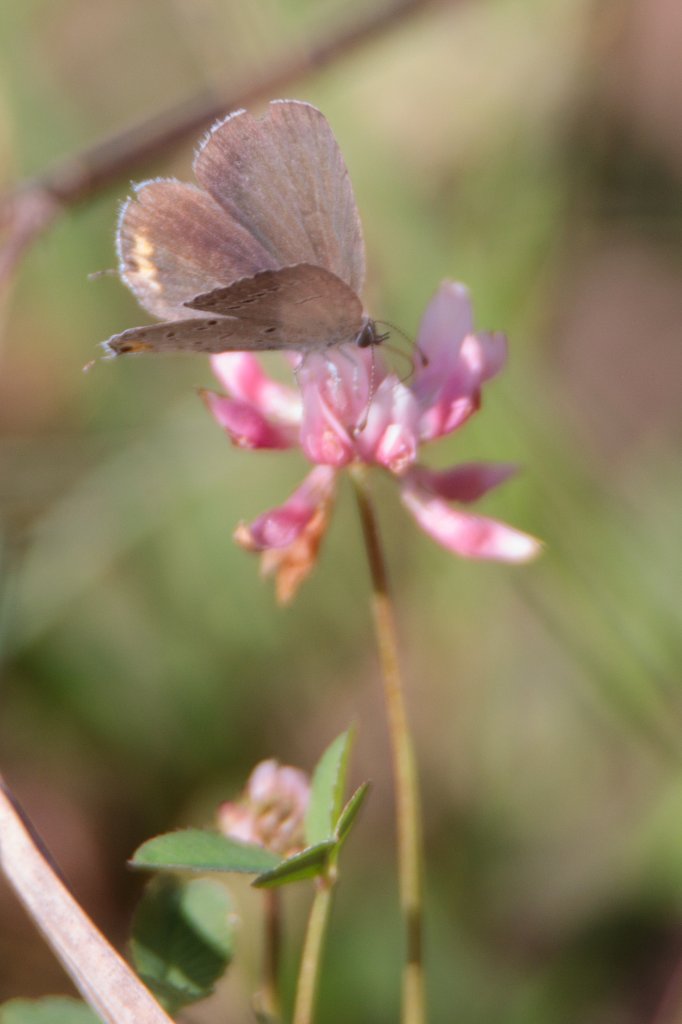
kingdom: Animalia
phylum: Arthropoda
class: Insecta
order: Lepidoptera
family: Lycaenidae
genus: Elkalyce
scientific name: Elkalyce comyntas
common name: Eastern Tailed-Blue
